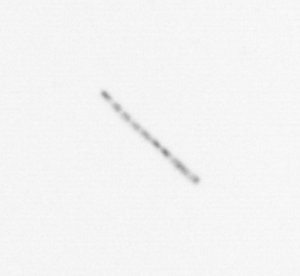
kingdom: Chromista
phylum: Ochrophyta
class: Bacillariophyceae
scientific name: Bacillariophyceae
